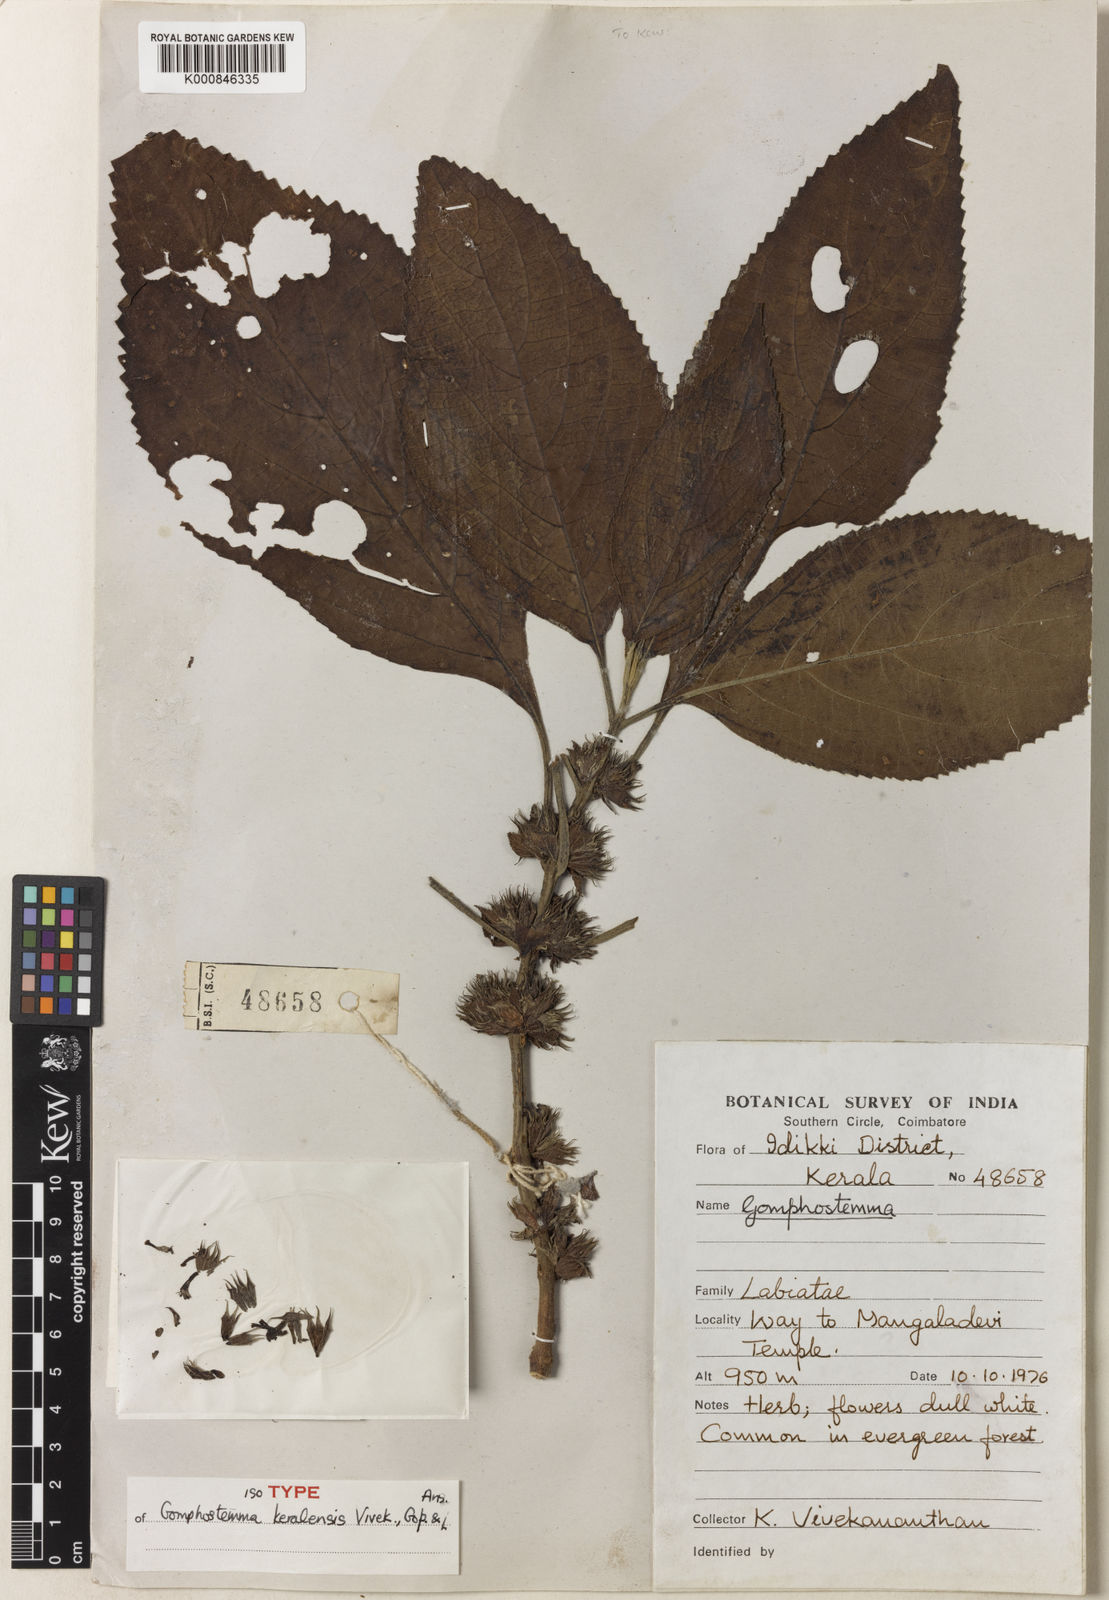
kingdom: Plantae
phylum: Tracheophyta
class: Magnoliopsida
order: Lamiales
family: Lamiaceae
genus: Gomphostemma
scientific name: Gomphostemma keralense
